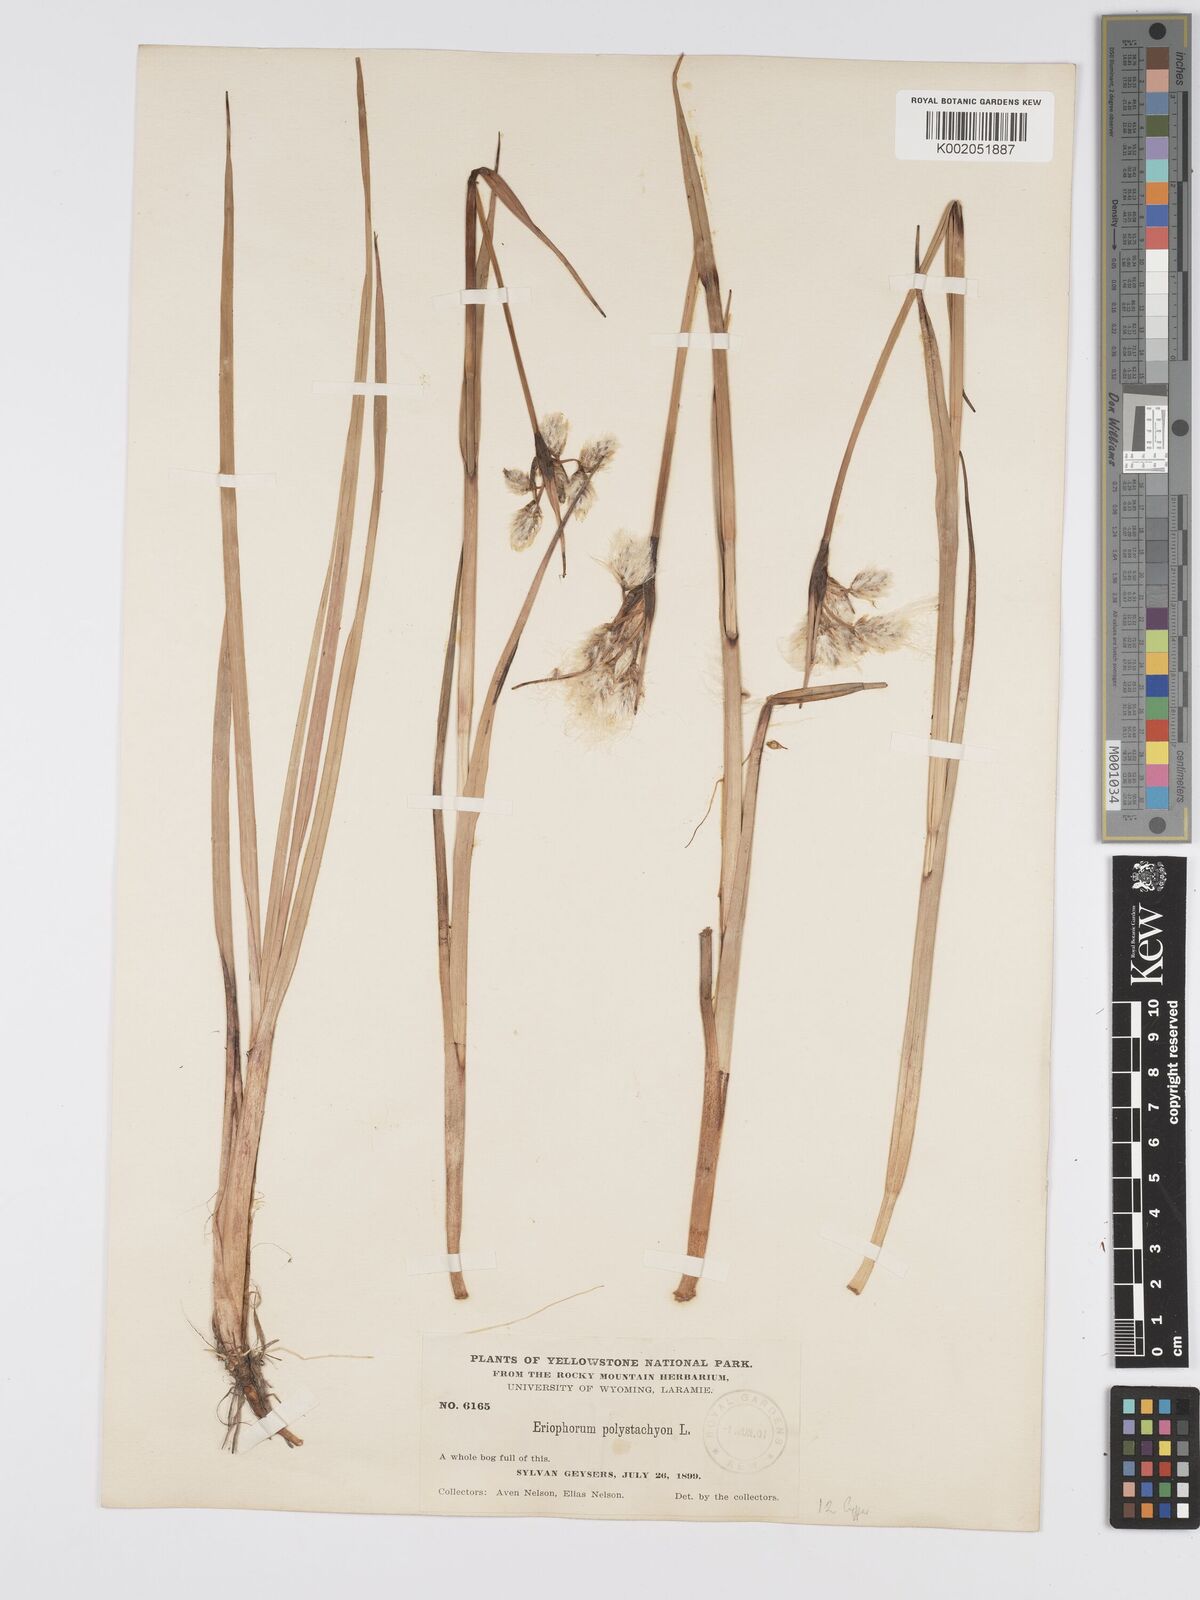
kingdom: Plantae
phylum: Tracheophyta
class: Liliopsida
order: Poales
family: Cyperaceae
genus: Eriophorum
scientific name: Eriophorum latifolium
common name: Broad-leaved cottongrass
